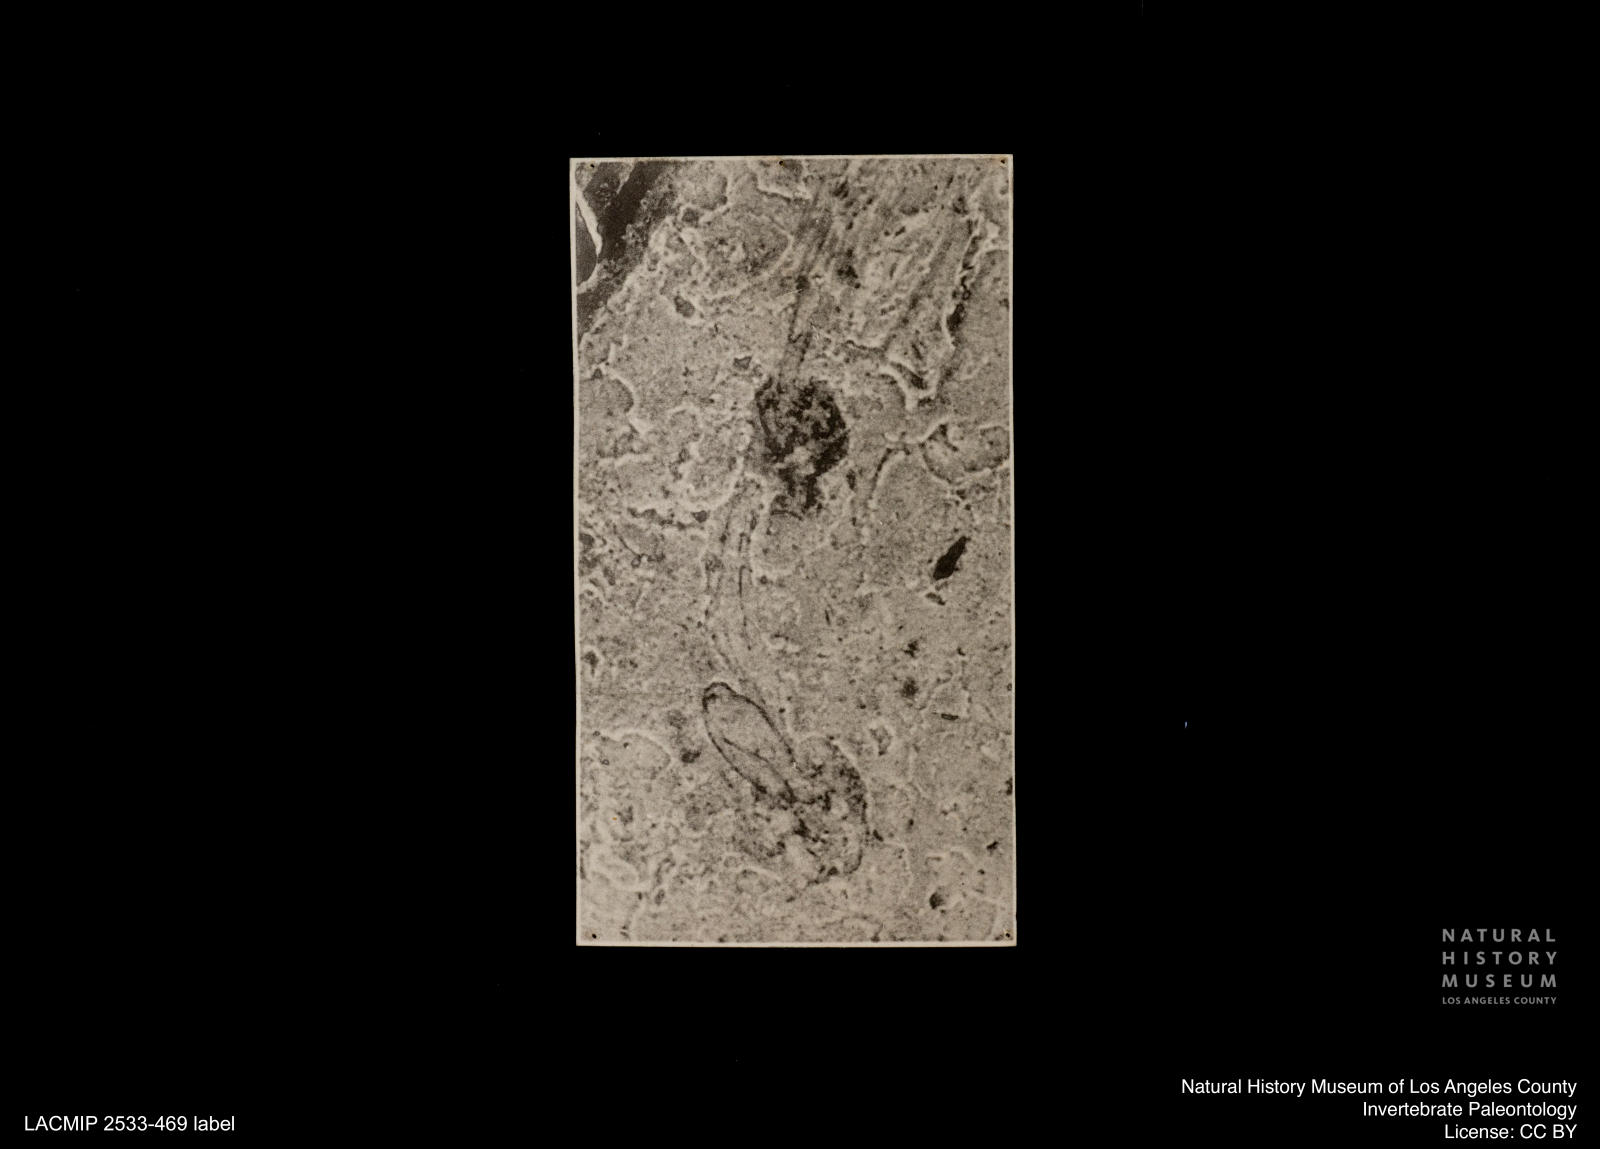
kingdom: Animalia
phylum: Arthropoda
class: Insecta
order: Diptera
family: Chironomidae
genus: Tanypus
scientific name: Tanypus
